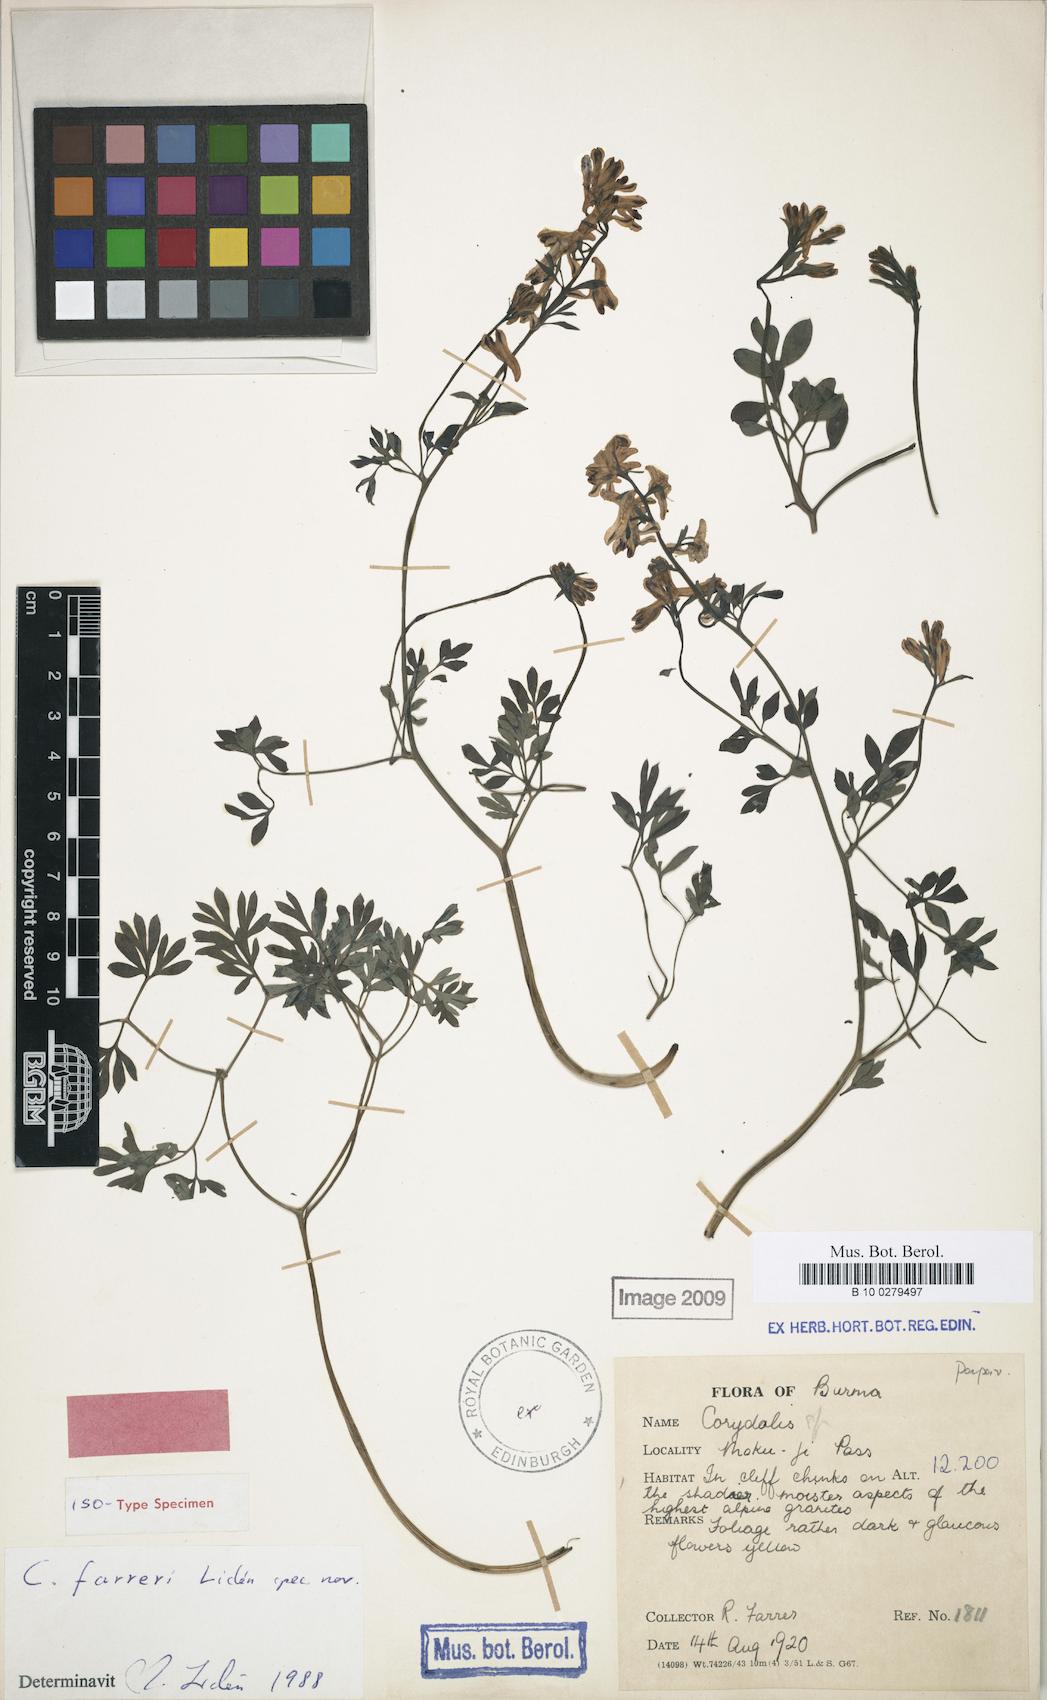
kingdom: Plantae
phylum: Tracheophyta
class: Magnoliopsida
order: Ranunculales
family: Papaveraceae
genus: Corydalis
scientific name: Corydalis farreri
